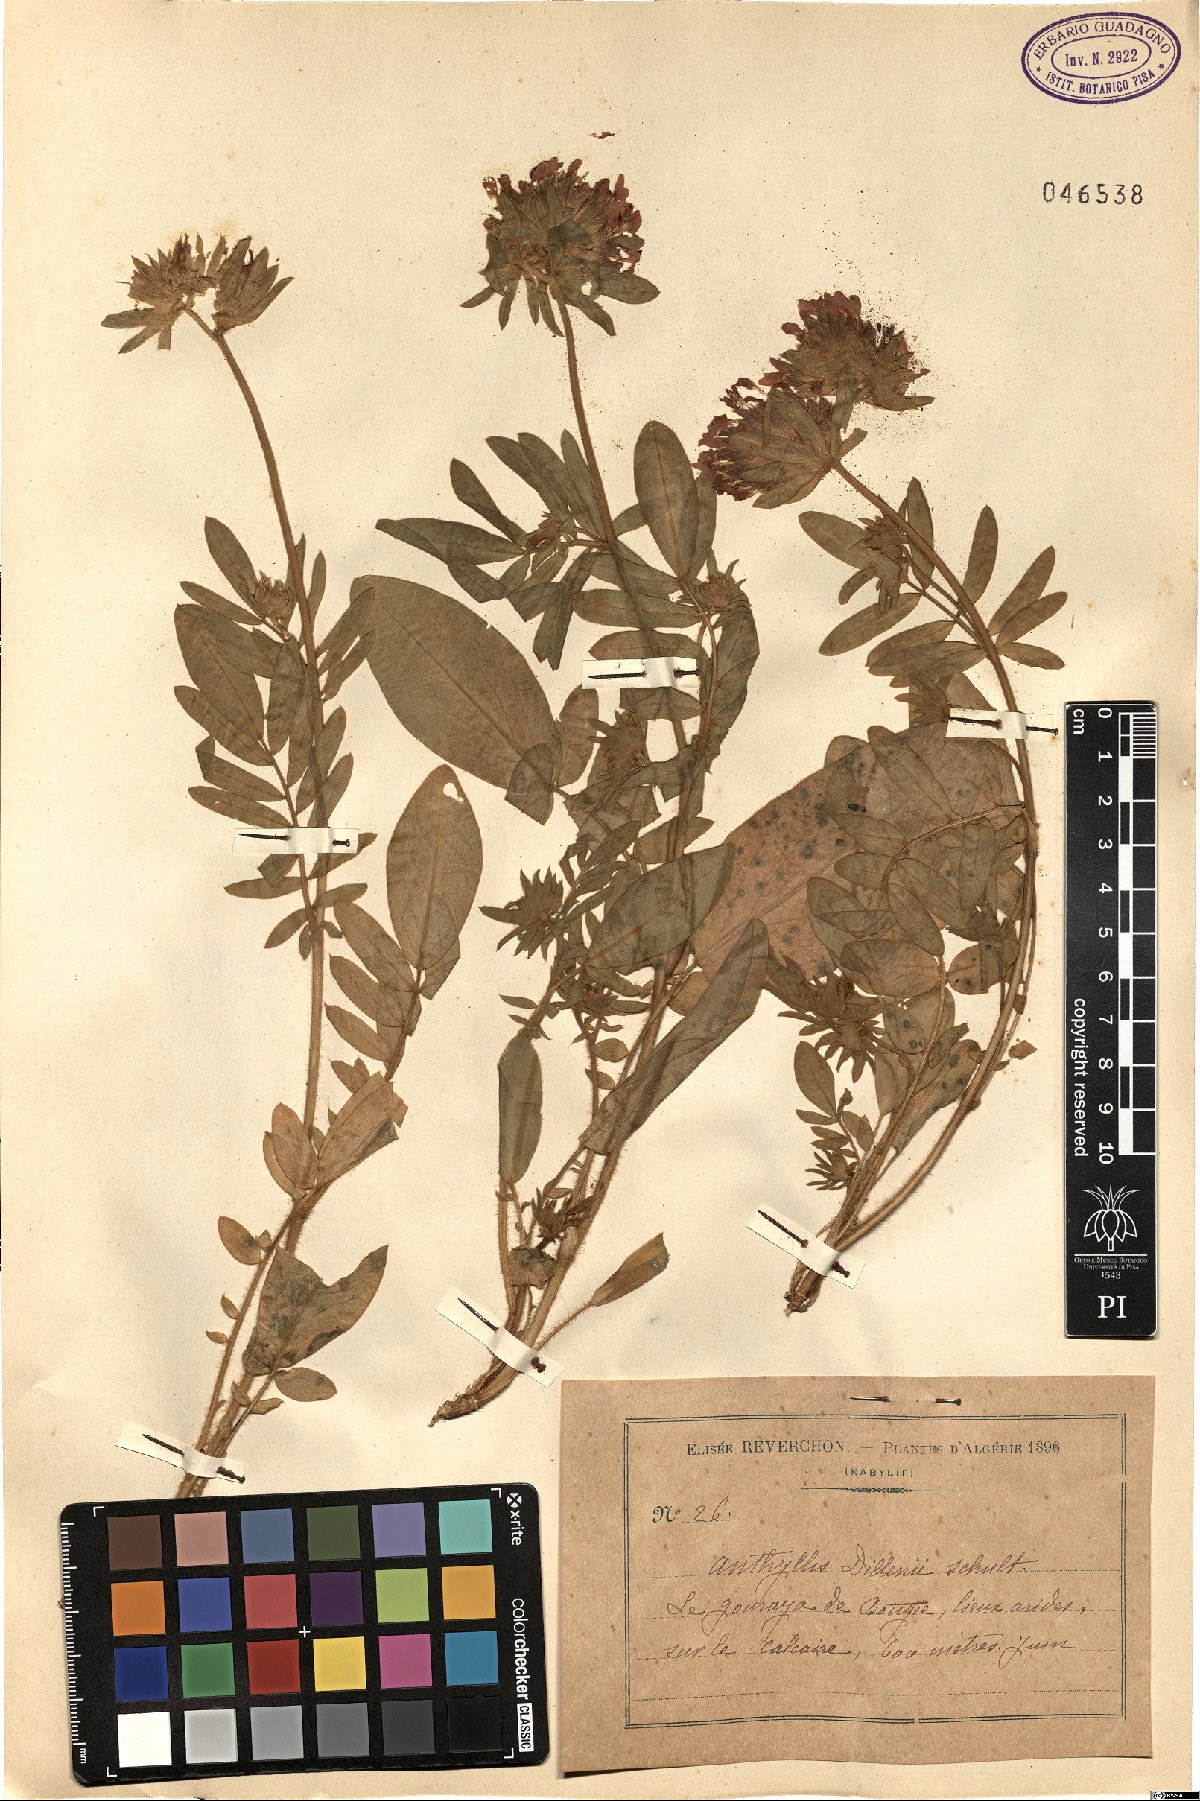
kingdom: Plantae
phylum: Tracheophyta
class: Magnoliopsida
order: Fabales
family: Fabaceae
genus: Anthyllis
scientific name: Anthyllis vulneraria
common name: Kidney vetch
